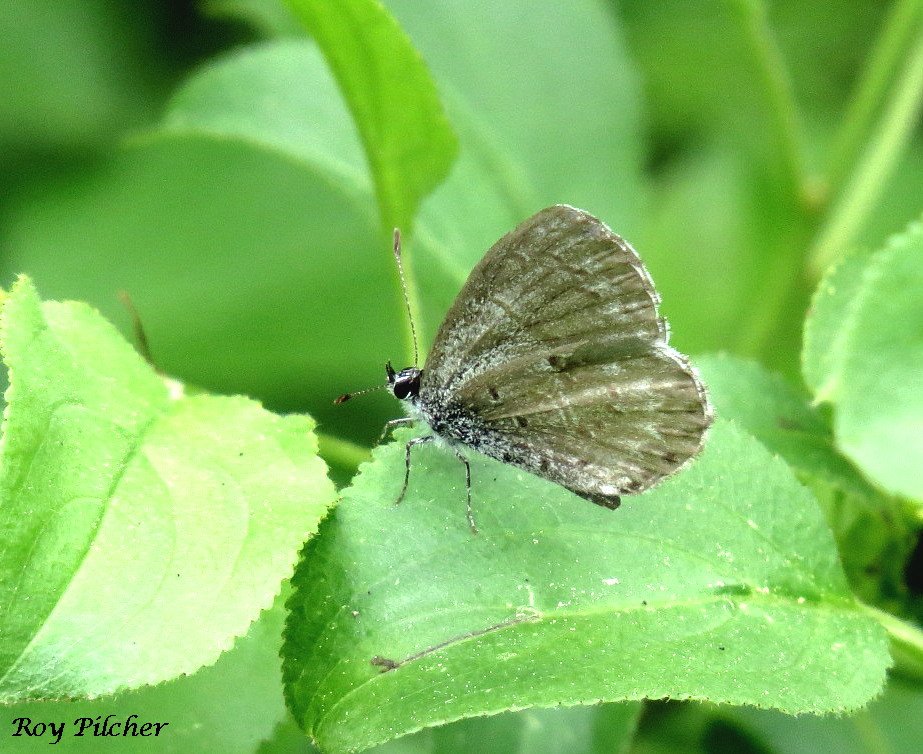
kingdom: Animalia
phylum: Arthropoda
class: Insecta
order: Lepidoptera
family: Lycaenidae
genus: Celastrina
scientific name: Celastrina
